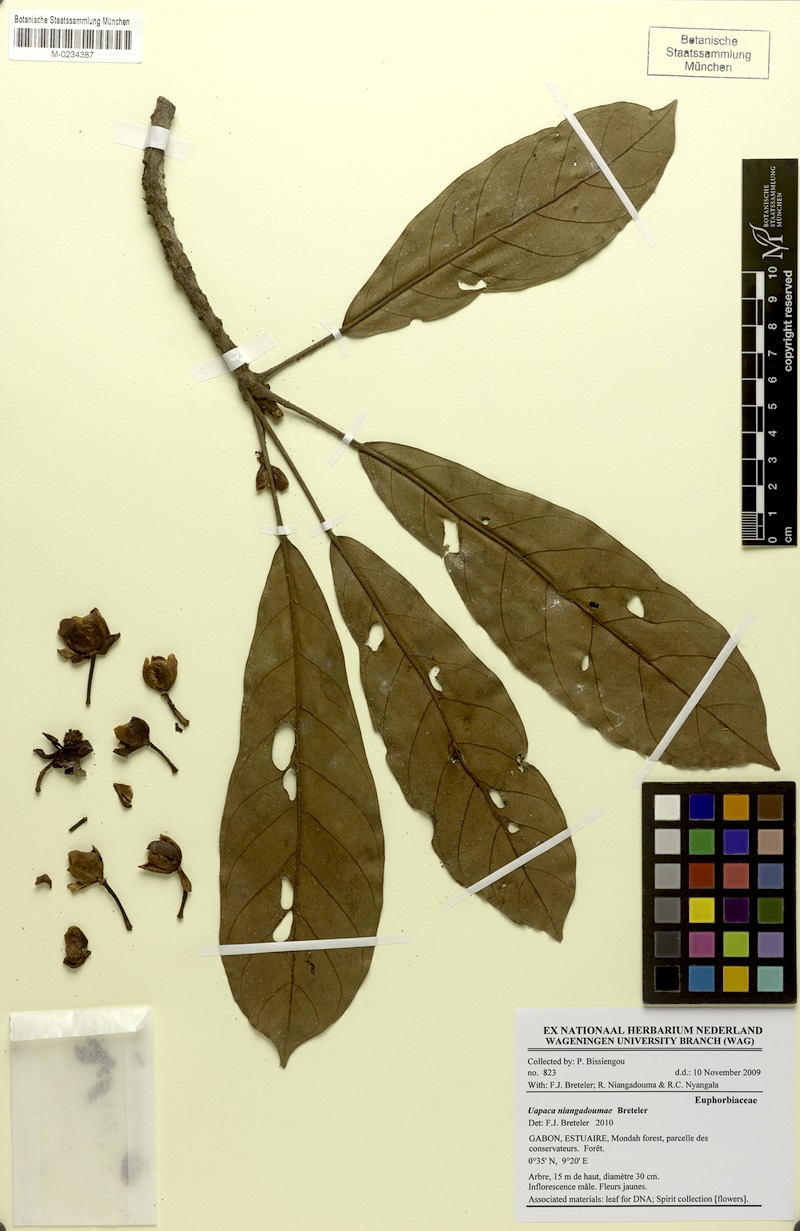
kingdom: Plantae
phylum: Tracheophyta
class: Magnoliopsida
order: Malpighiales
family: Phyllanthaceae
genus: Uapaca
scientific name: Uapaca niangadoumae
